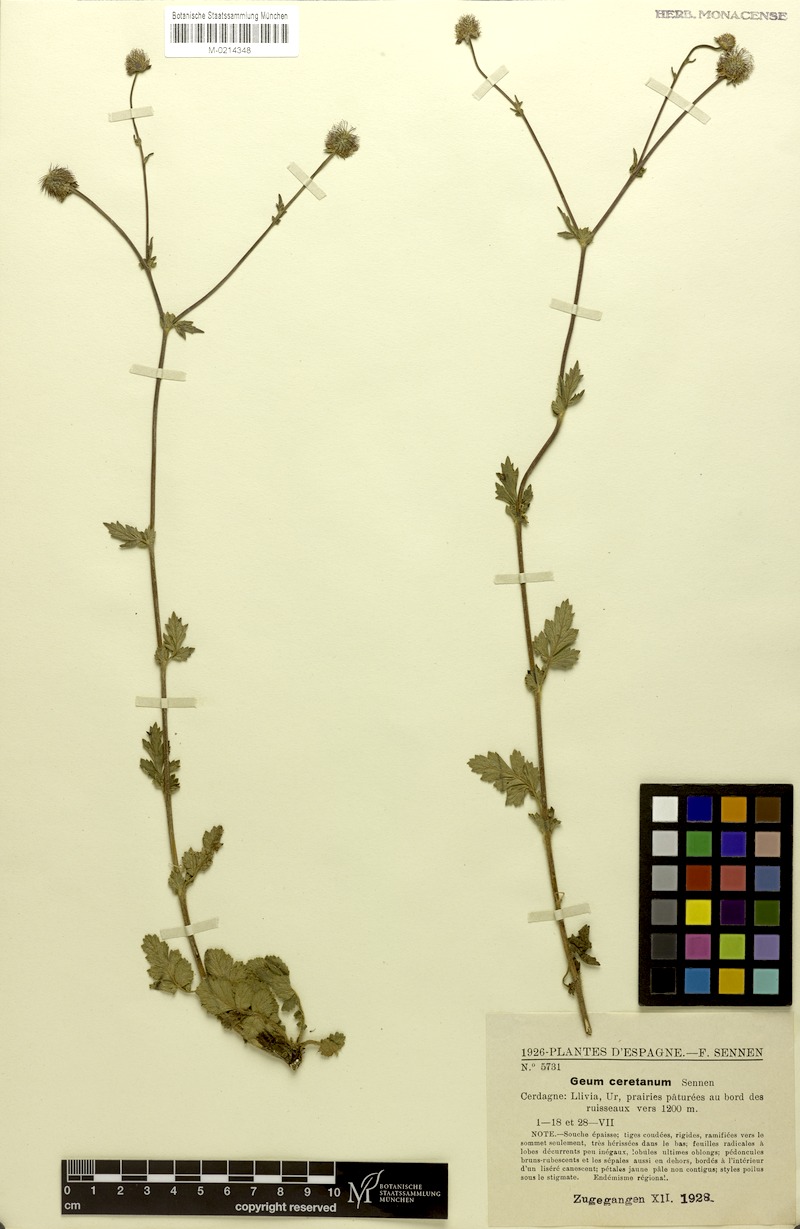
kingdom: Plantae
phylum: Tracheophyta
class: Magnoliopsida
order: Rosales
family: Rosaceae
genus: Geum
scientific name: Geum hispidum
